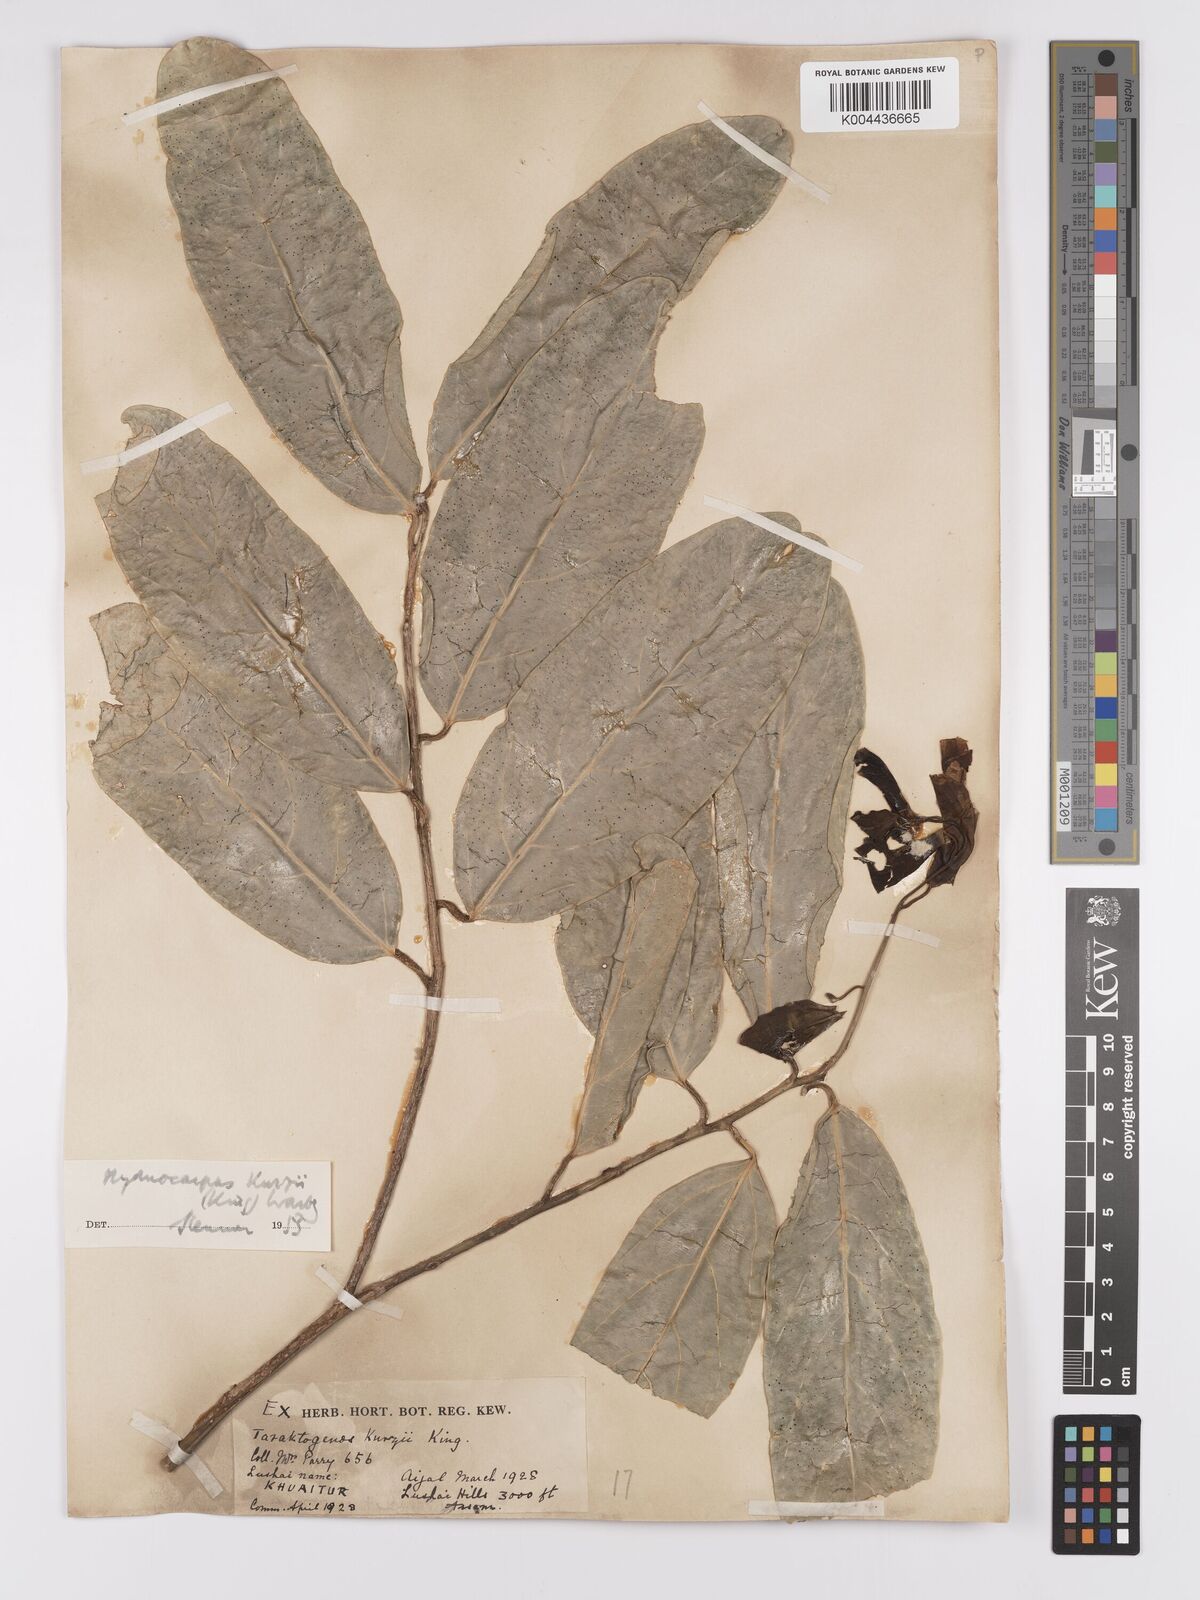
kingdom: Plantae
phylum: Tracheophyta
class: Magnoliopsida
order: Malpighiales
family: Achariaceae
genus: Hydnocarpus
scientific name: Hydnocarpus kurzii
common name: Chaulmoogra
